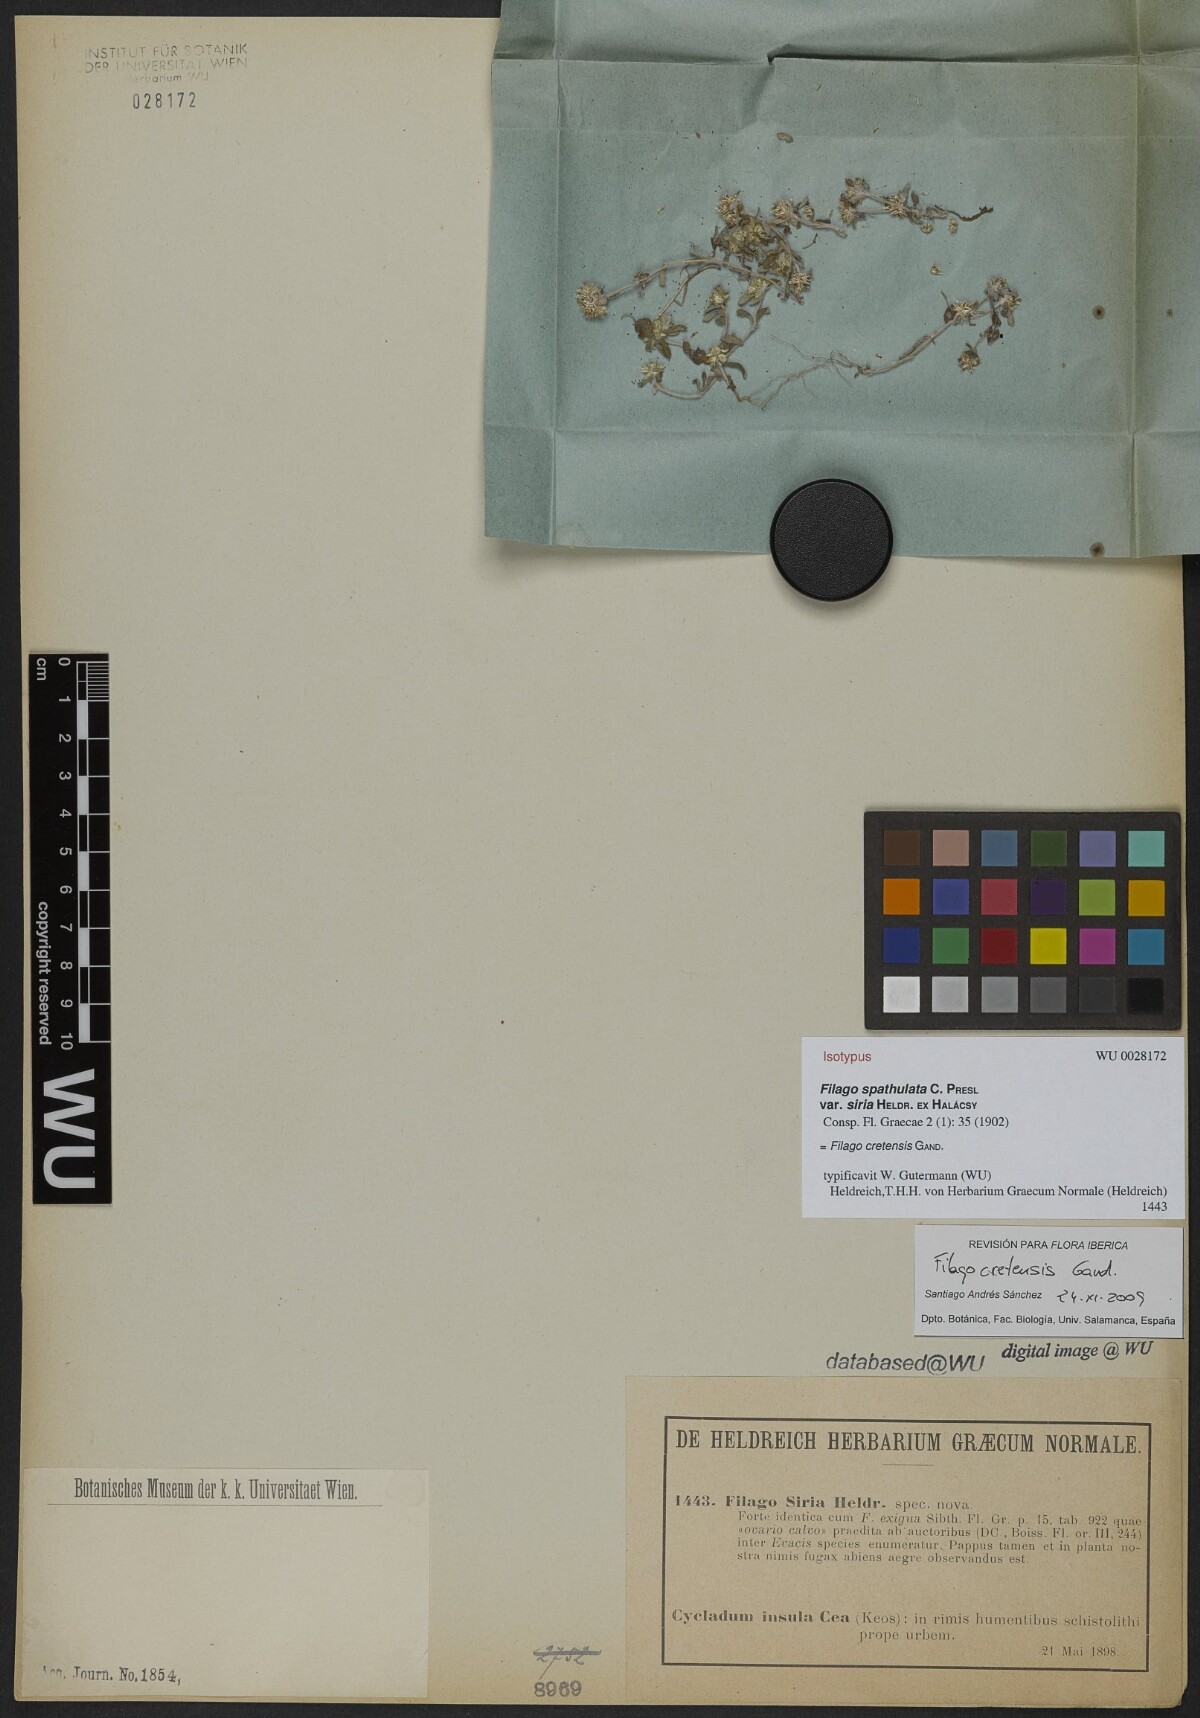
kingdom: Plantae
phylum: Tracheophyta
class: Magnoliopsida
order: Asterales
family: Asteraceae
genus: Filago
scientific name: Filago
